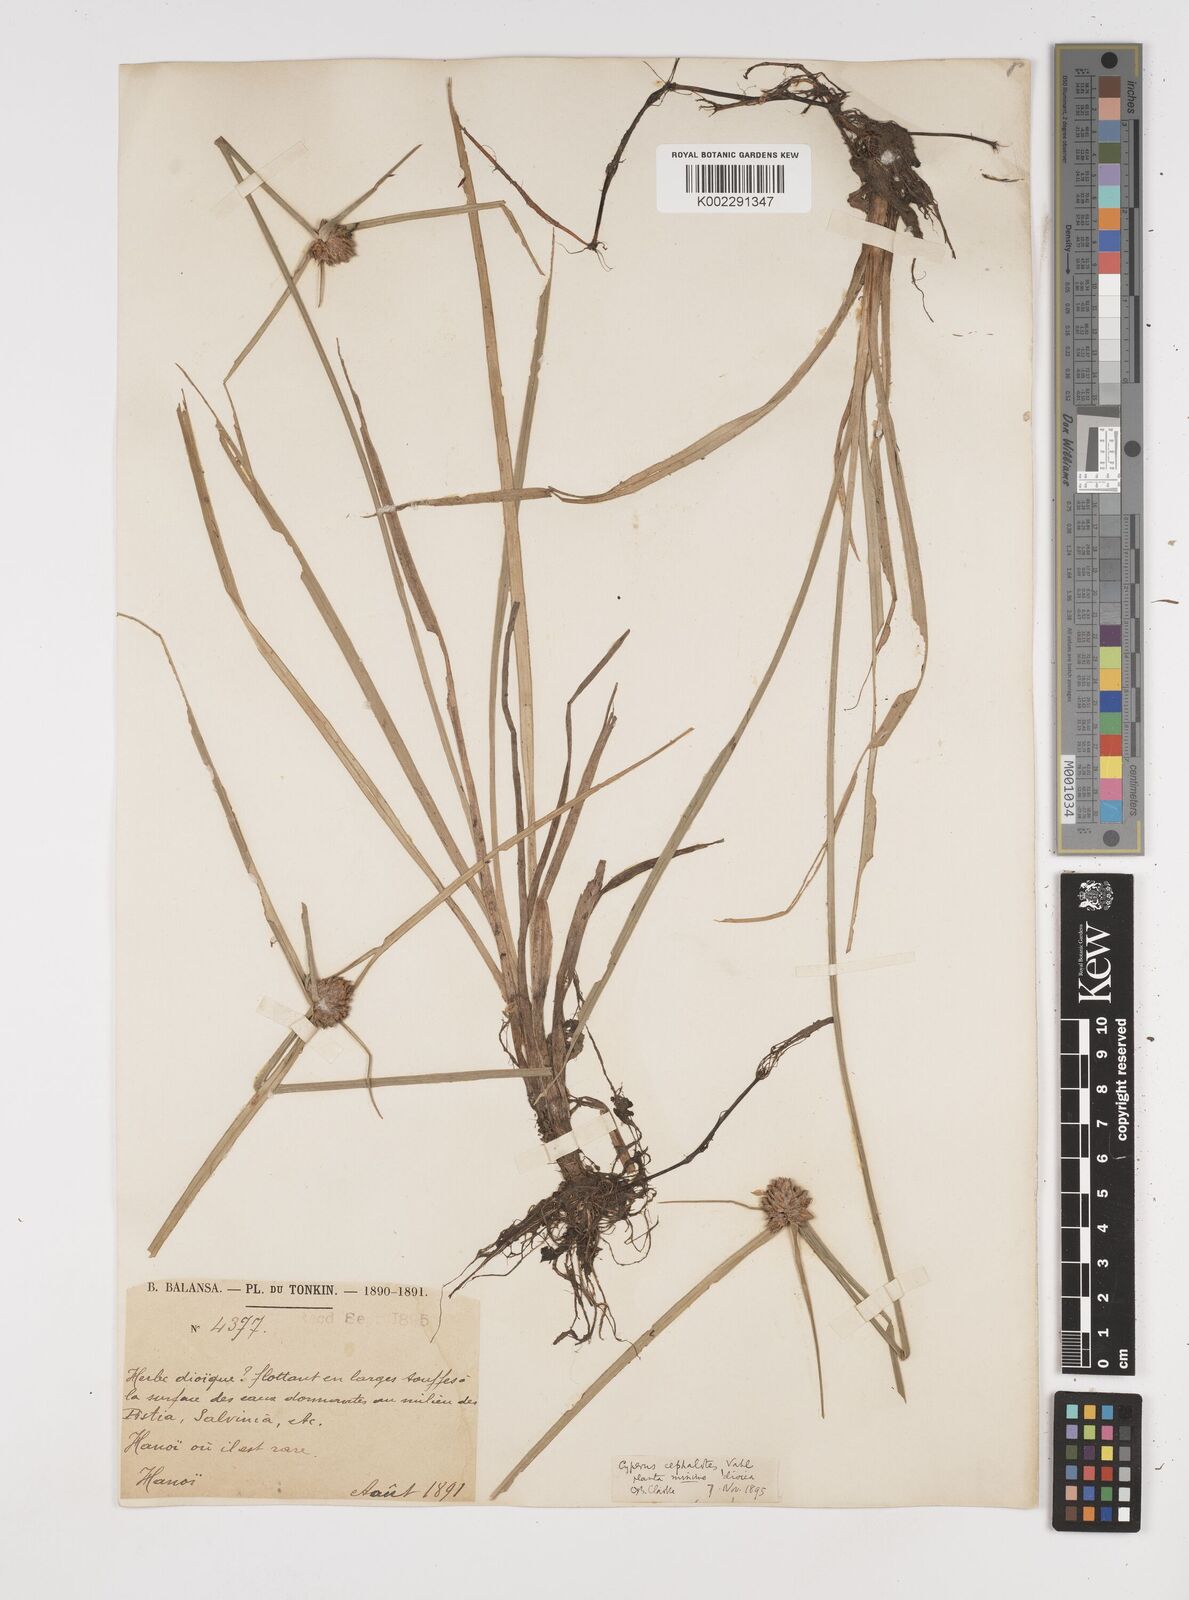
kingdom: Plantae
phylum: Tracheophyta
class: Liliopsida
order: Poales
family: Cyperaceae
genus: Cyperus
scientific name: Cyperus cephalotes
